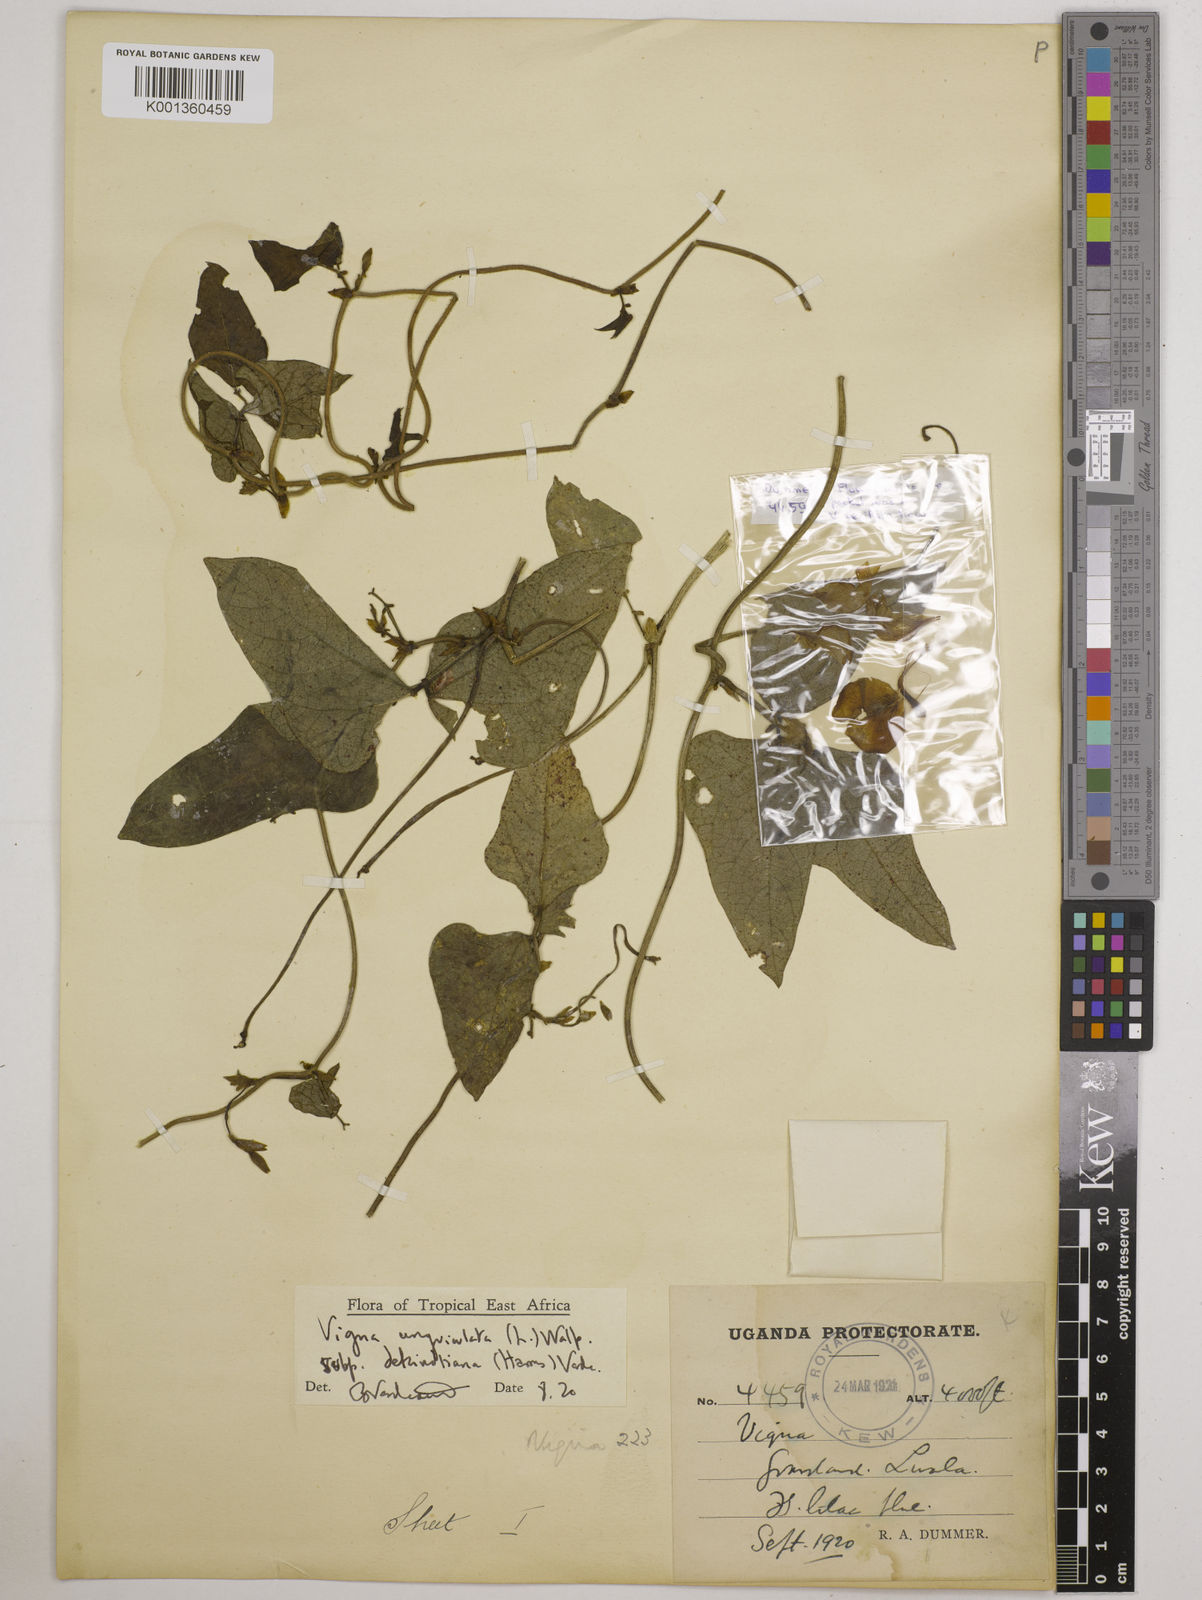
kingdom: Plantae
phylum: Tracheophyta
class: Magnoliopsida
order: Fabales
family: Fabaceae
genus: Vigna
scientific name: Vigna unguiculata
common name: Cowpea
